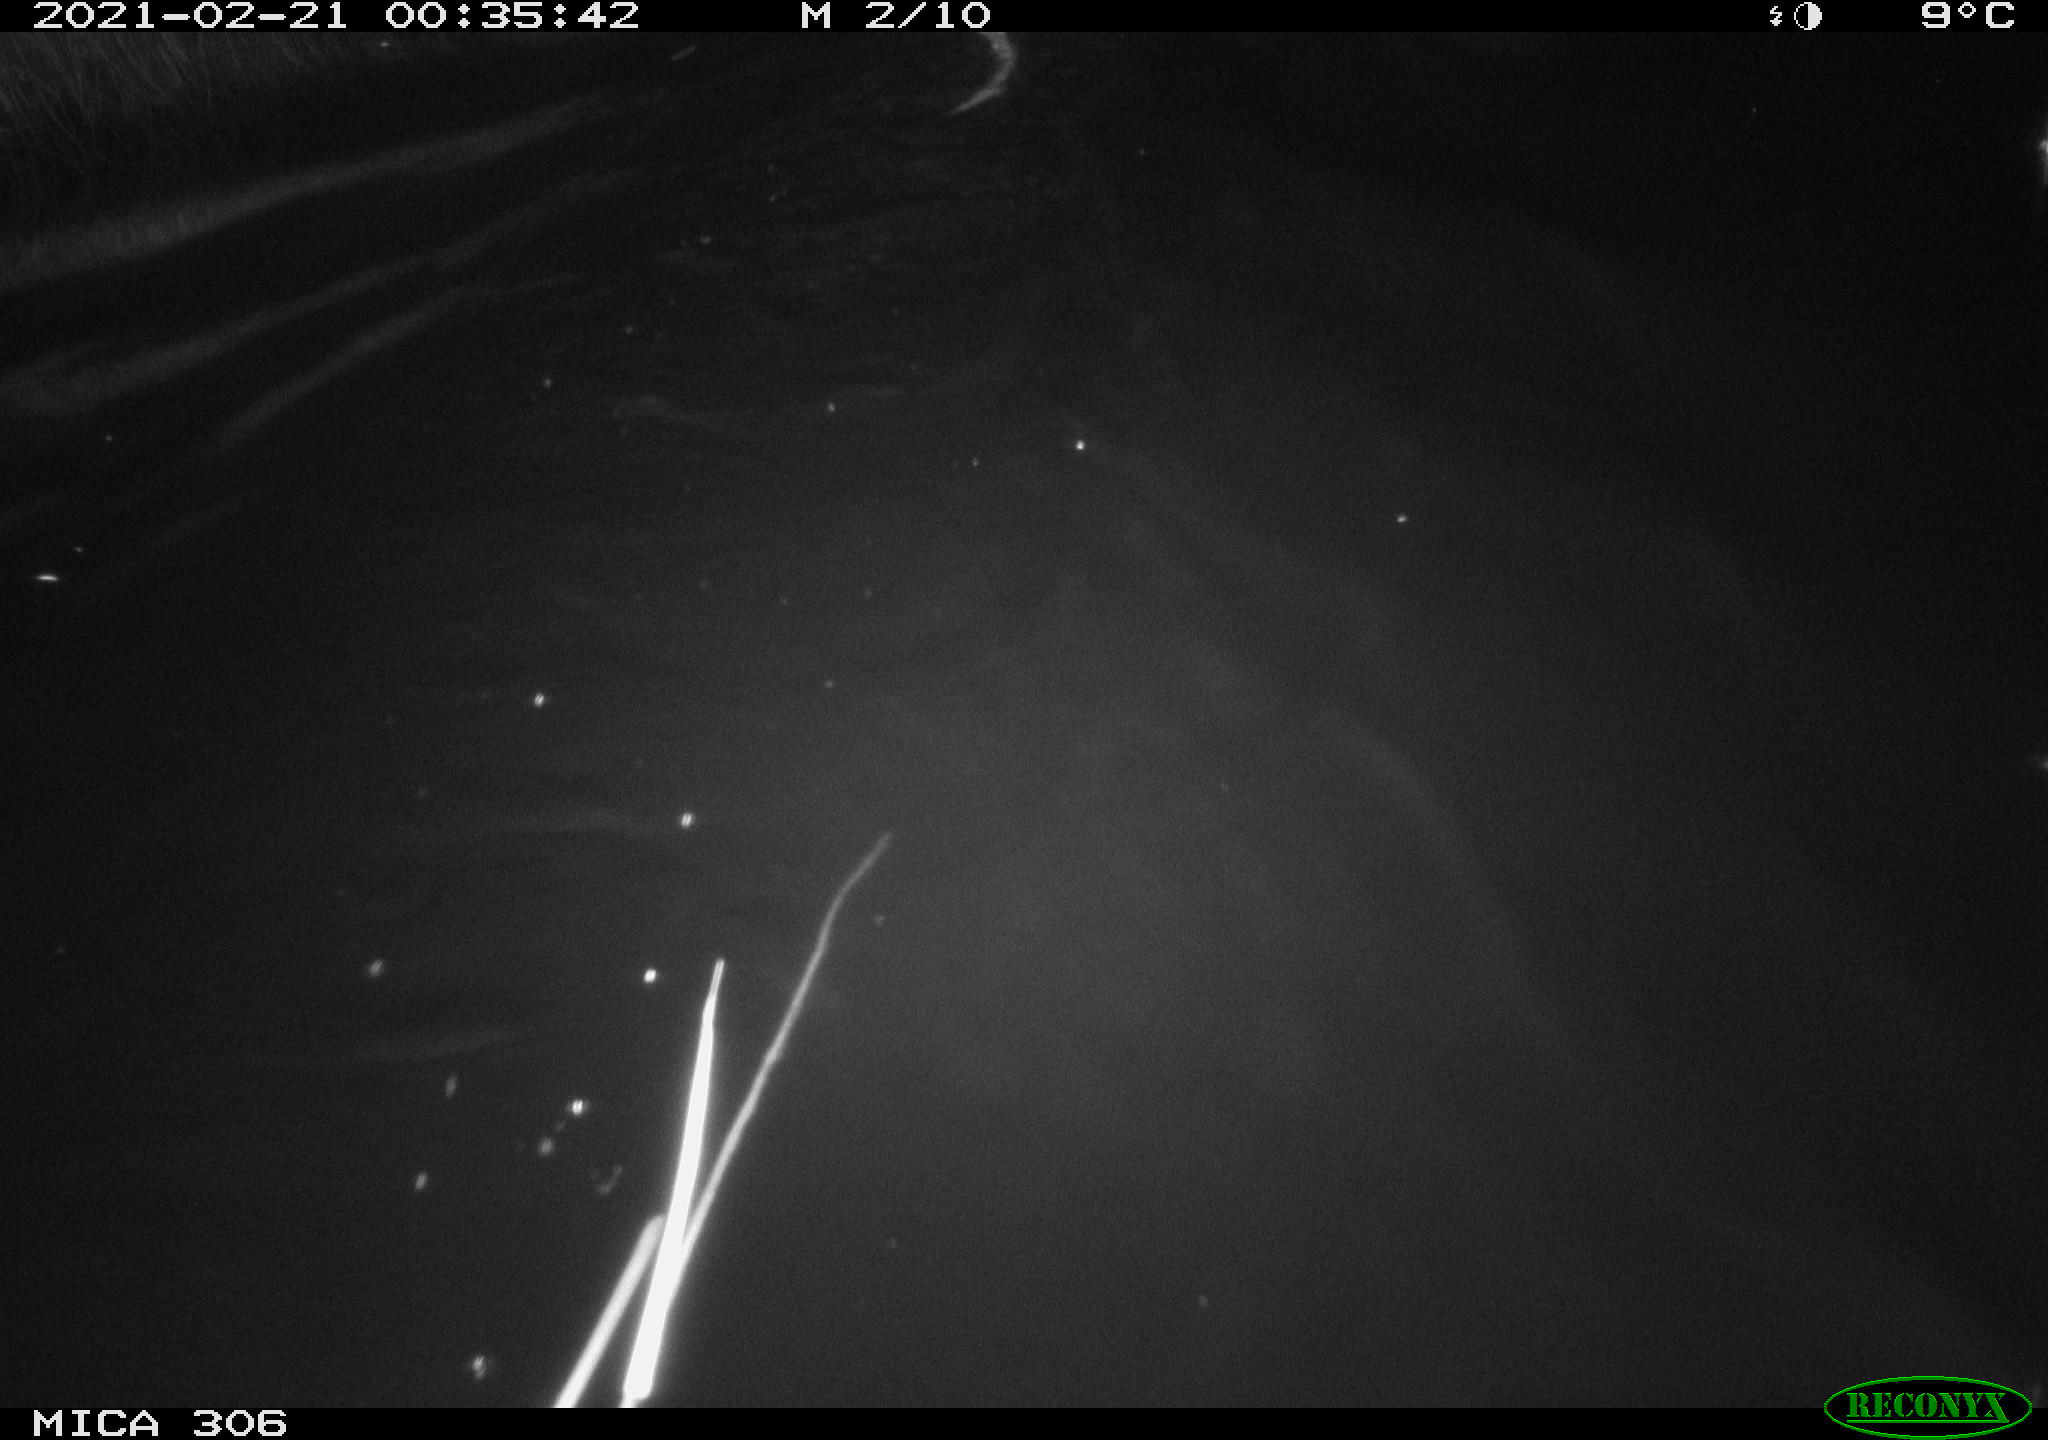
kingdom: Animalia
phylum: Chordata
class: Mammalia
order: Rodentia
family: Cricetidae
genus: Ondatra
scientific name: Ondatra zibethicus
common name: Muskrat
